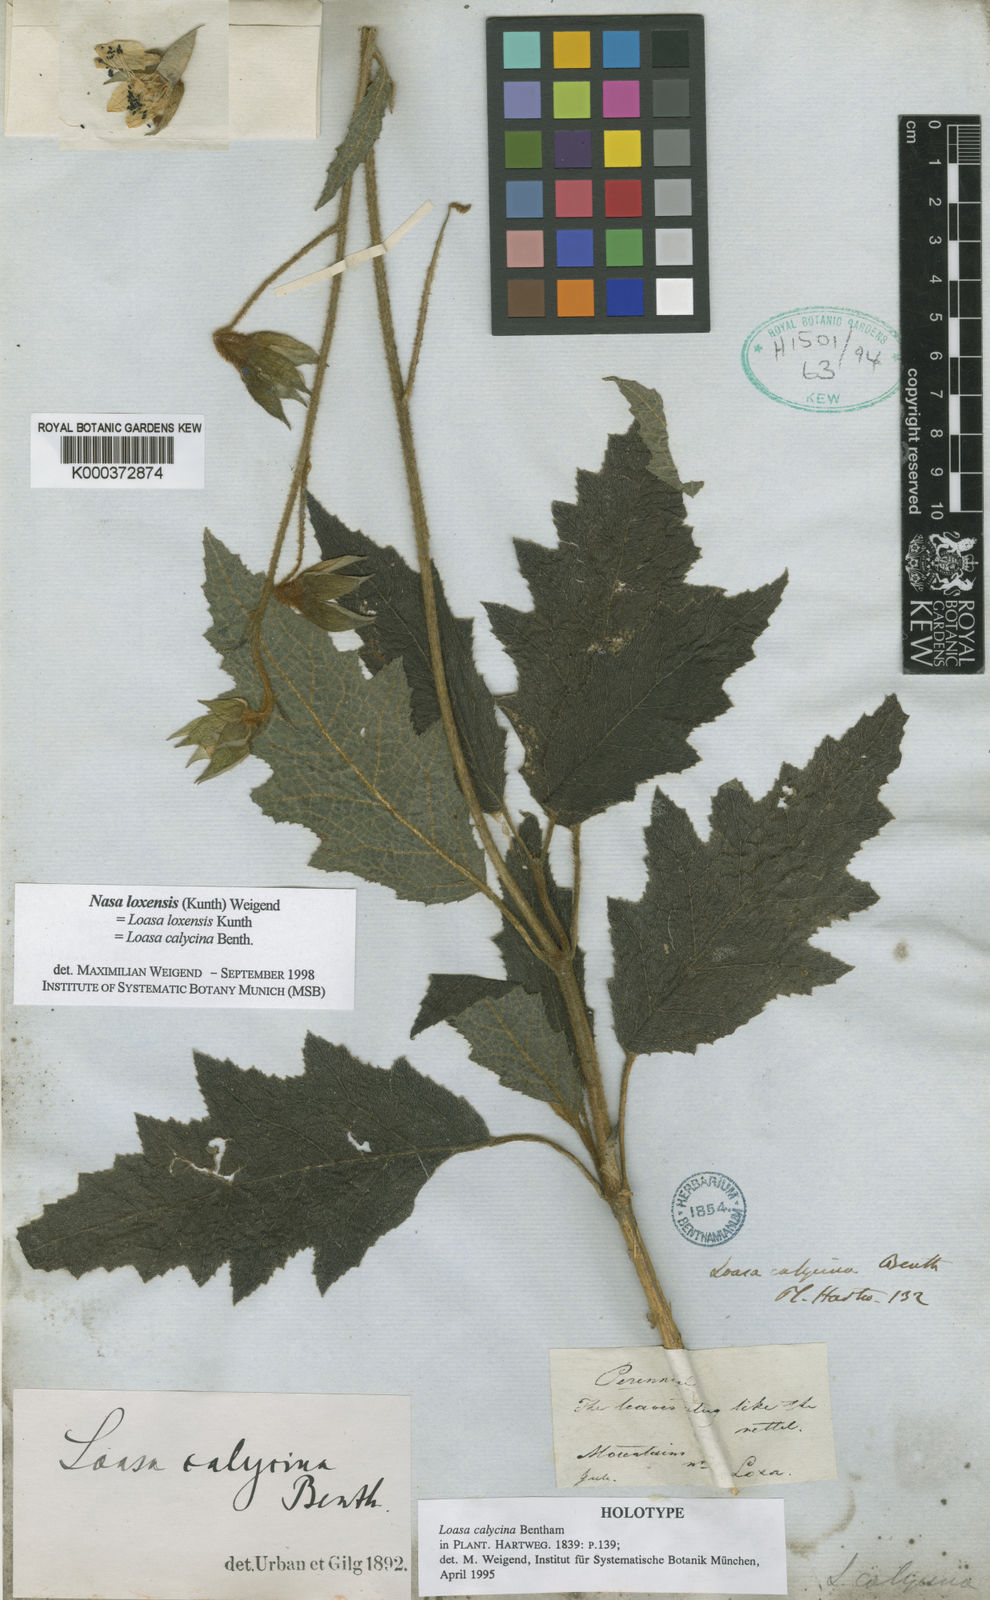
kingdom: Plantae
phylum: Tracheophyta
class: Magnoliopsida
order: Cornales
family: Loasaceae
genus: Nasa
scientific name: Nasa loxensis
